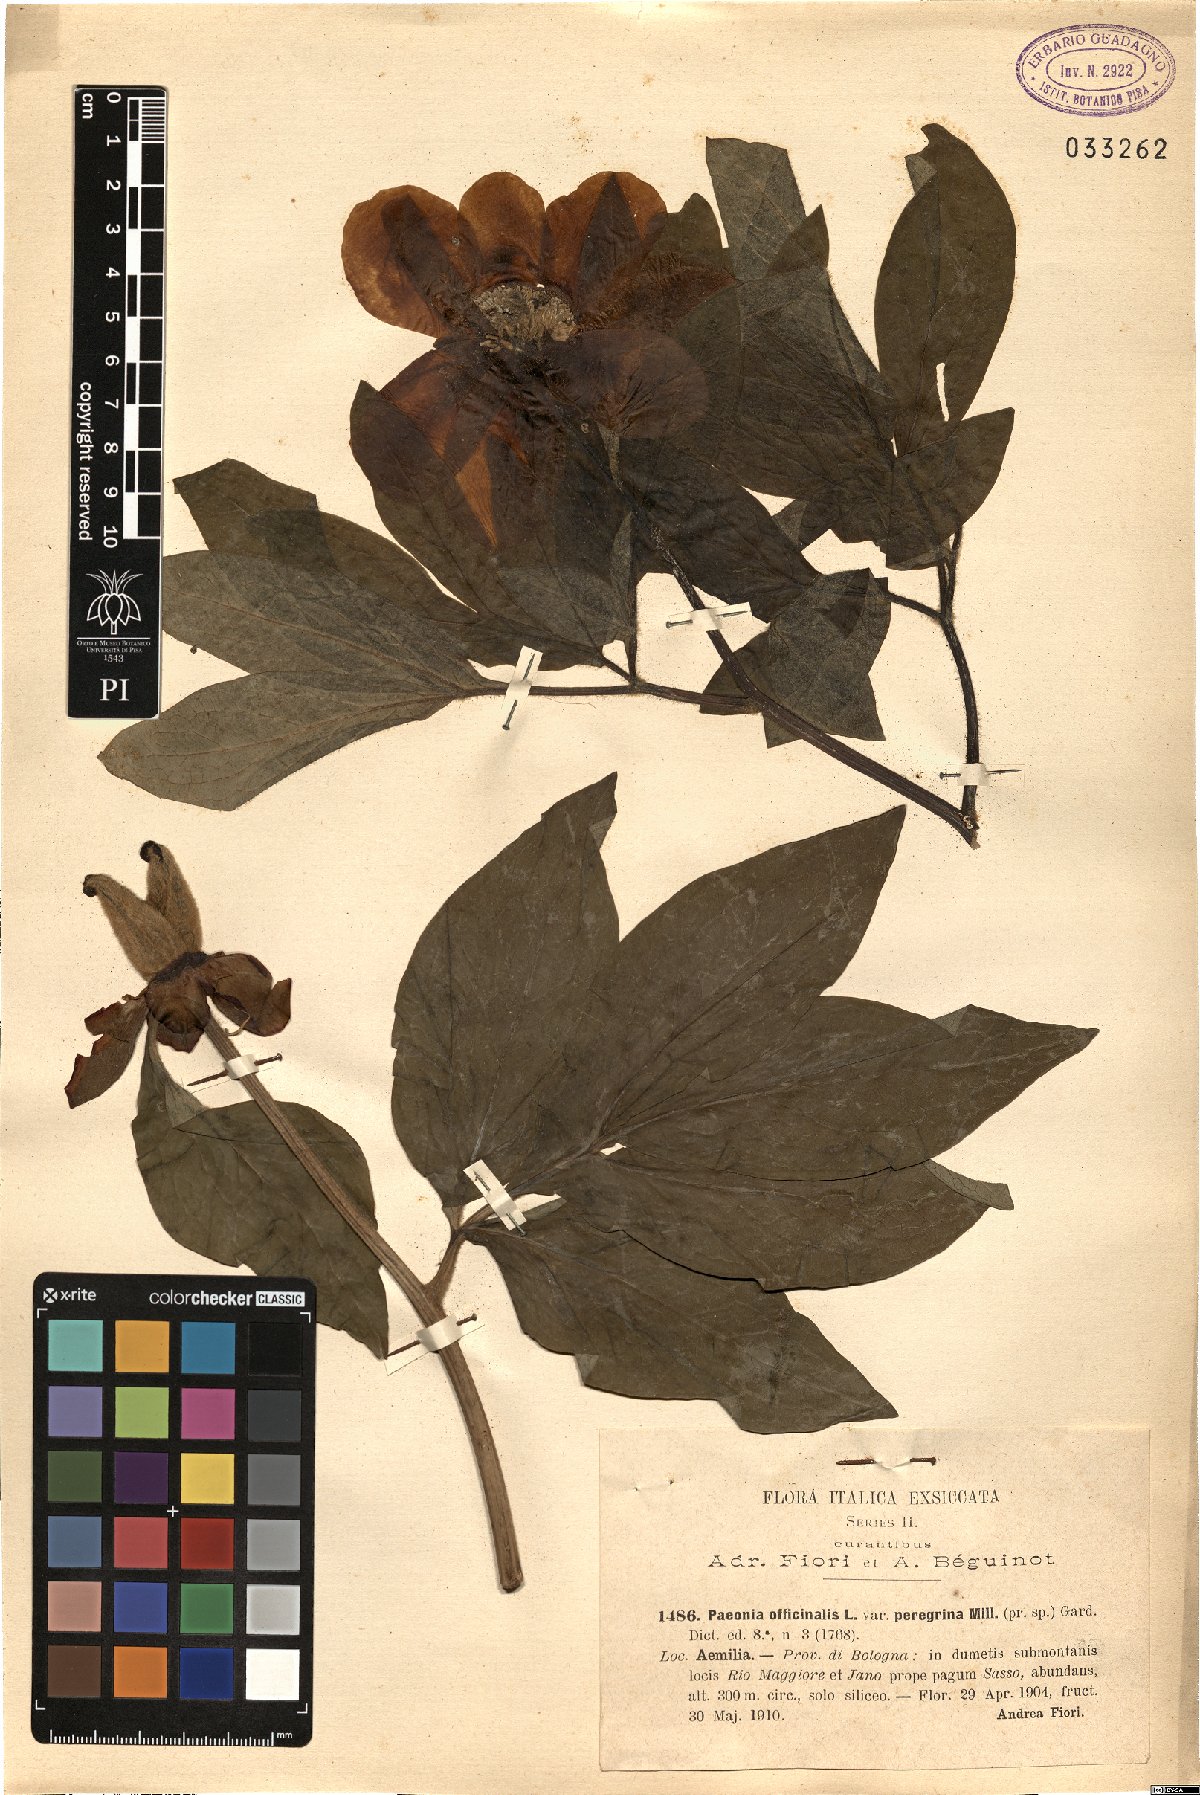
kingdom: Plantae
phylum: Tracheophyta
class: Magnoliopsida
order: Saxifragales
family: Paeoniaceae
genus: Paeonia
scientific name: Paeonia officinalis
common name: Common peony
